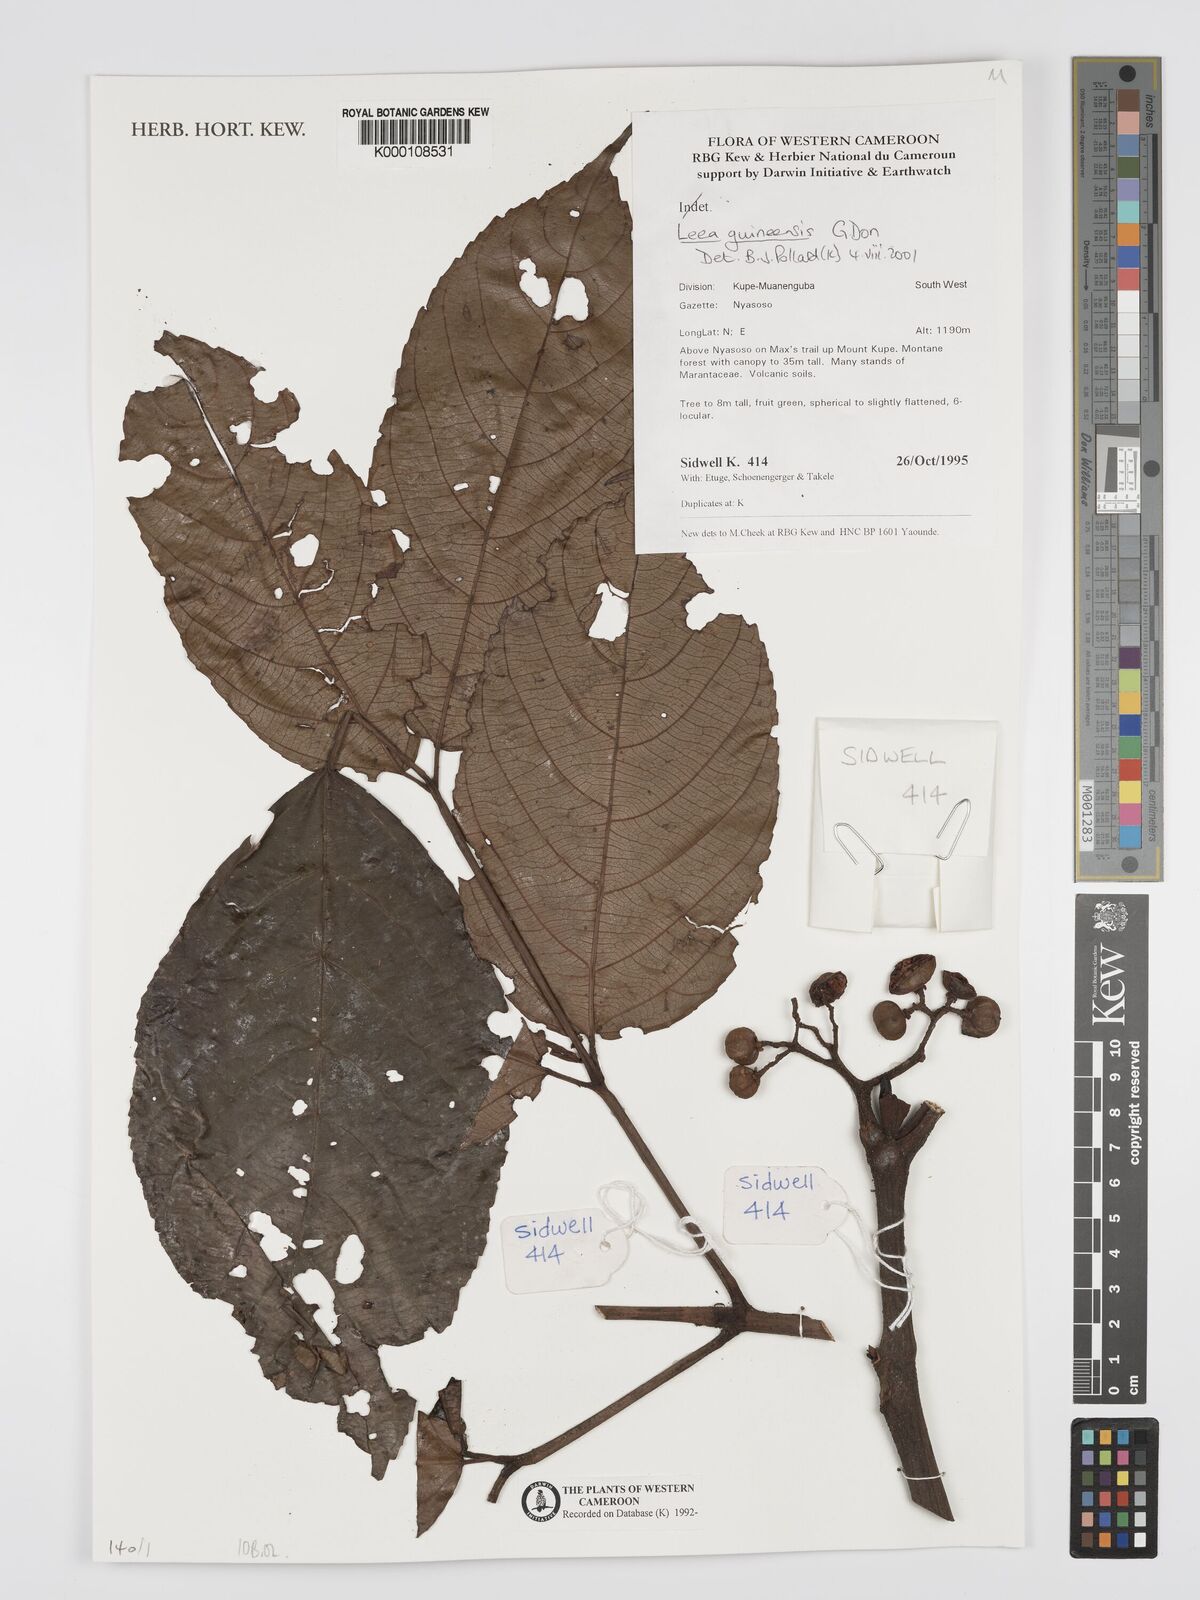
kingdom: Plantae
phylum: Tracheophyta
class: Magnoliopsida
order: Vitales
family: Vitaceae
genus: Leea
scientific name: Leea guineensis
